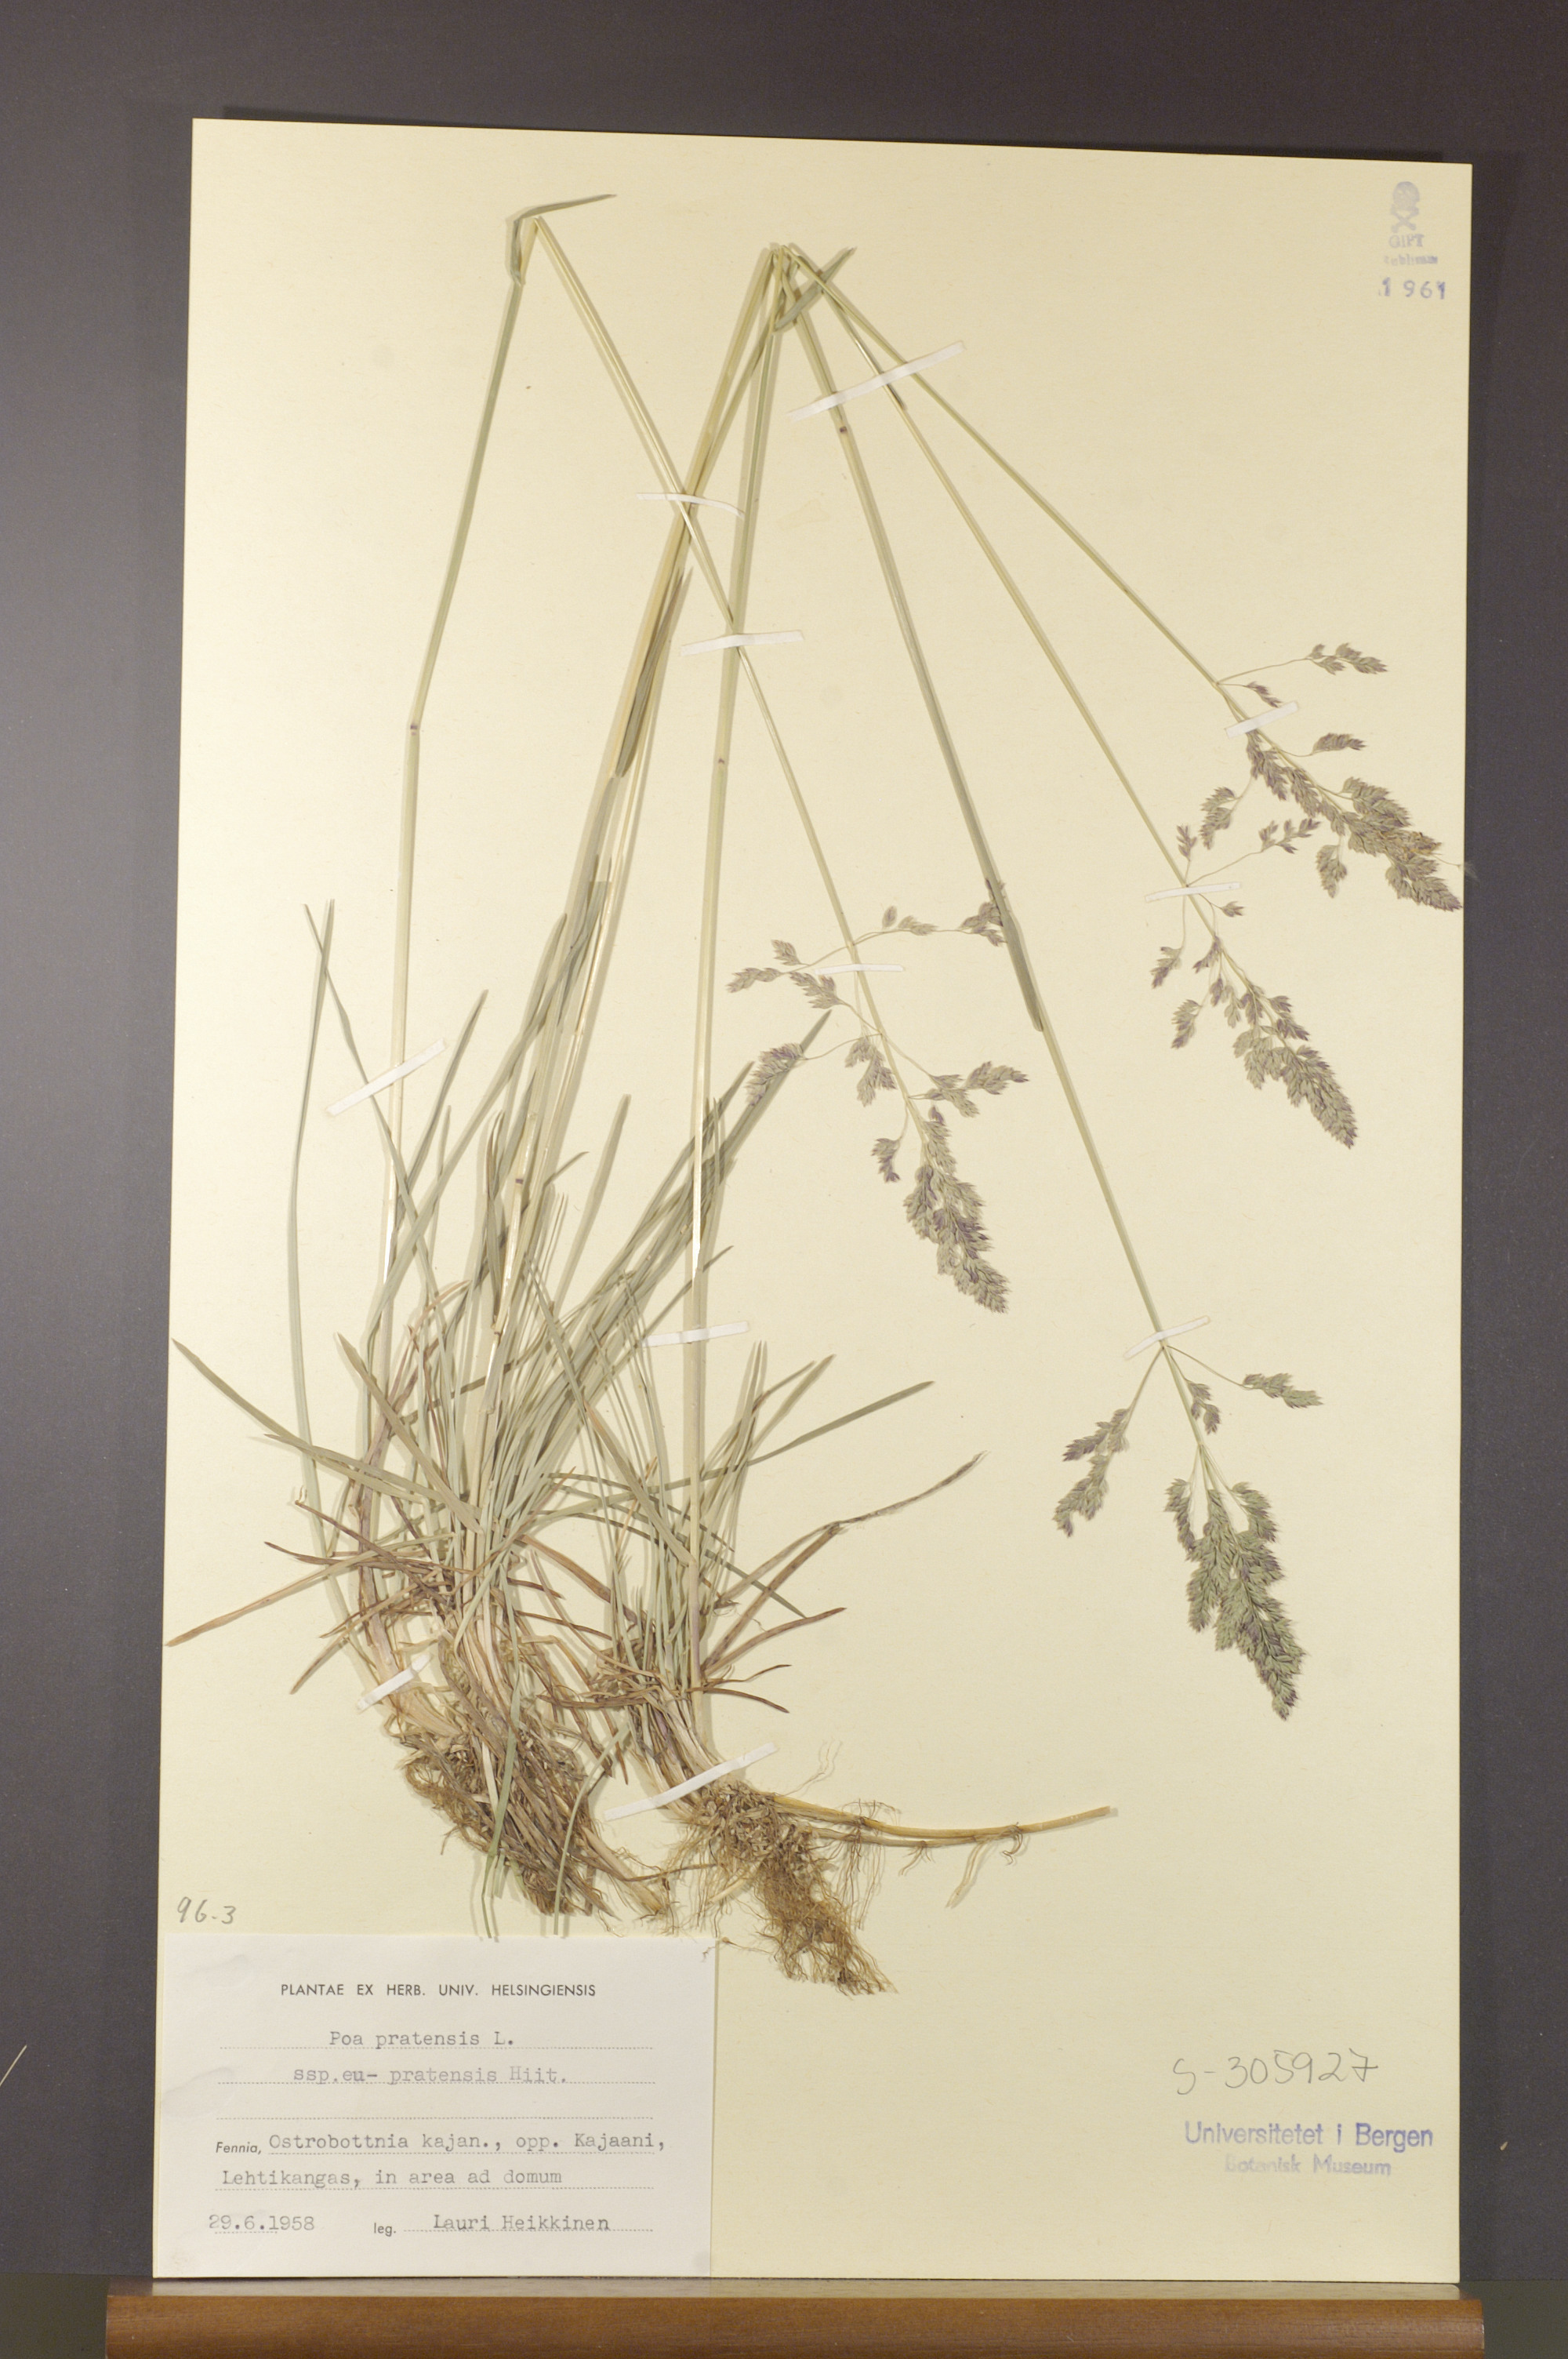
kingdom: Plantae
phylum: Tracheophyta
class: Liliopsida
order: Poales
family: Poaceae
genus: Poa
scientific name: Poa pratensis
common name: Kentucky bluegrass
